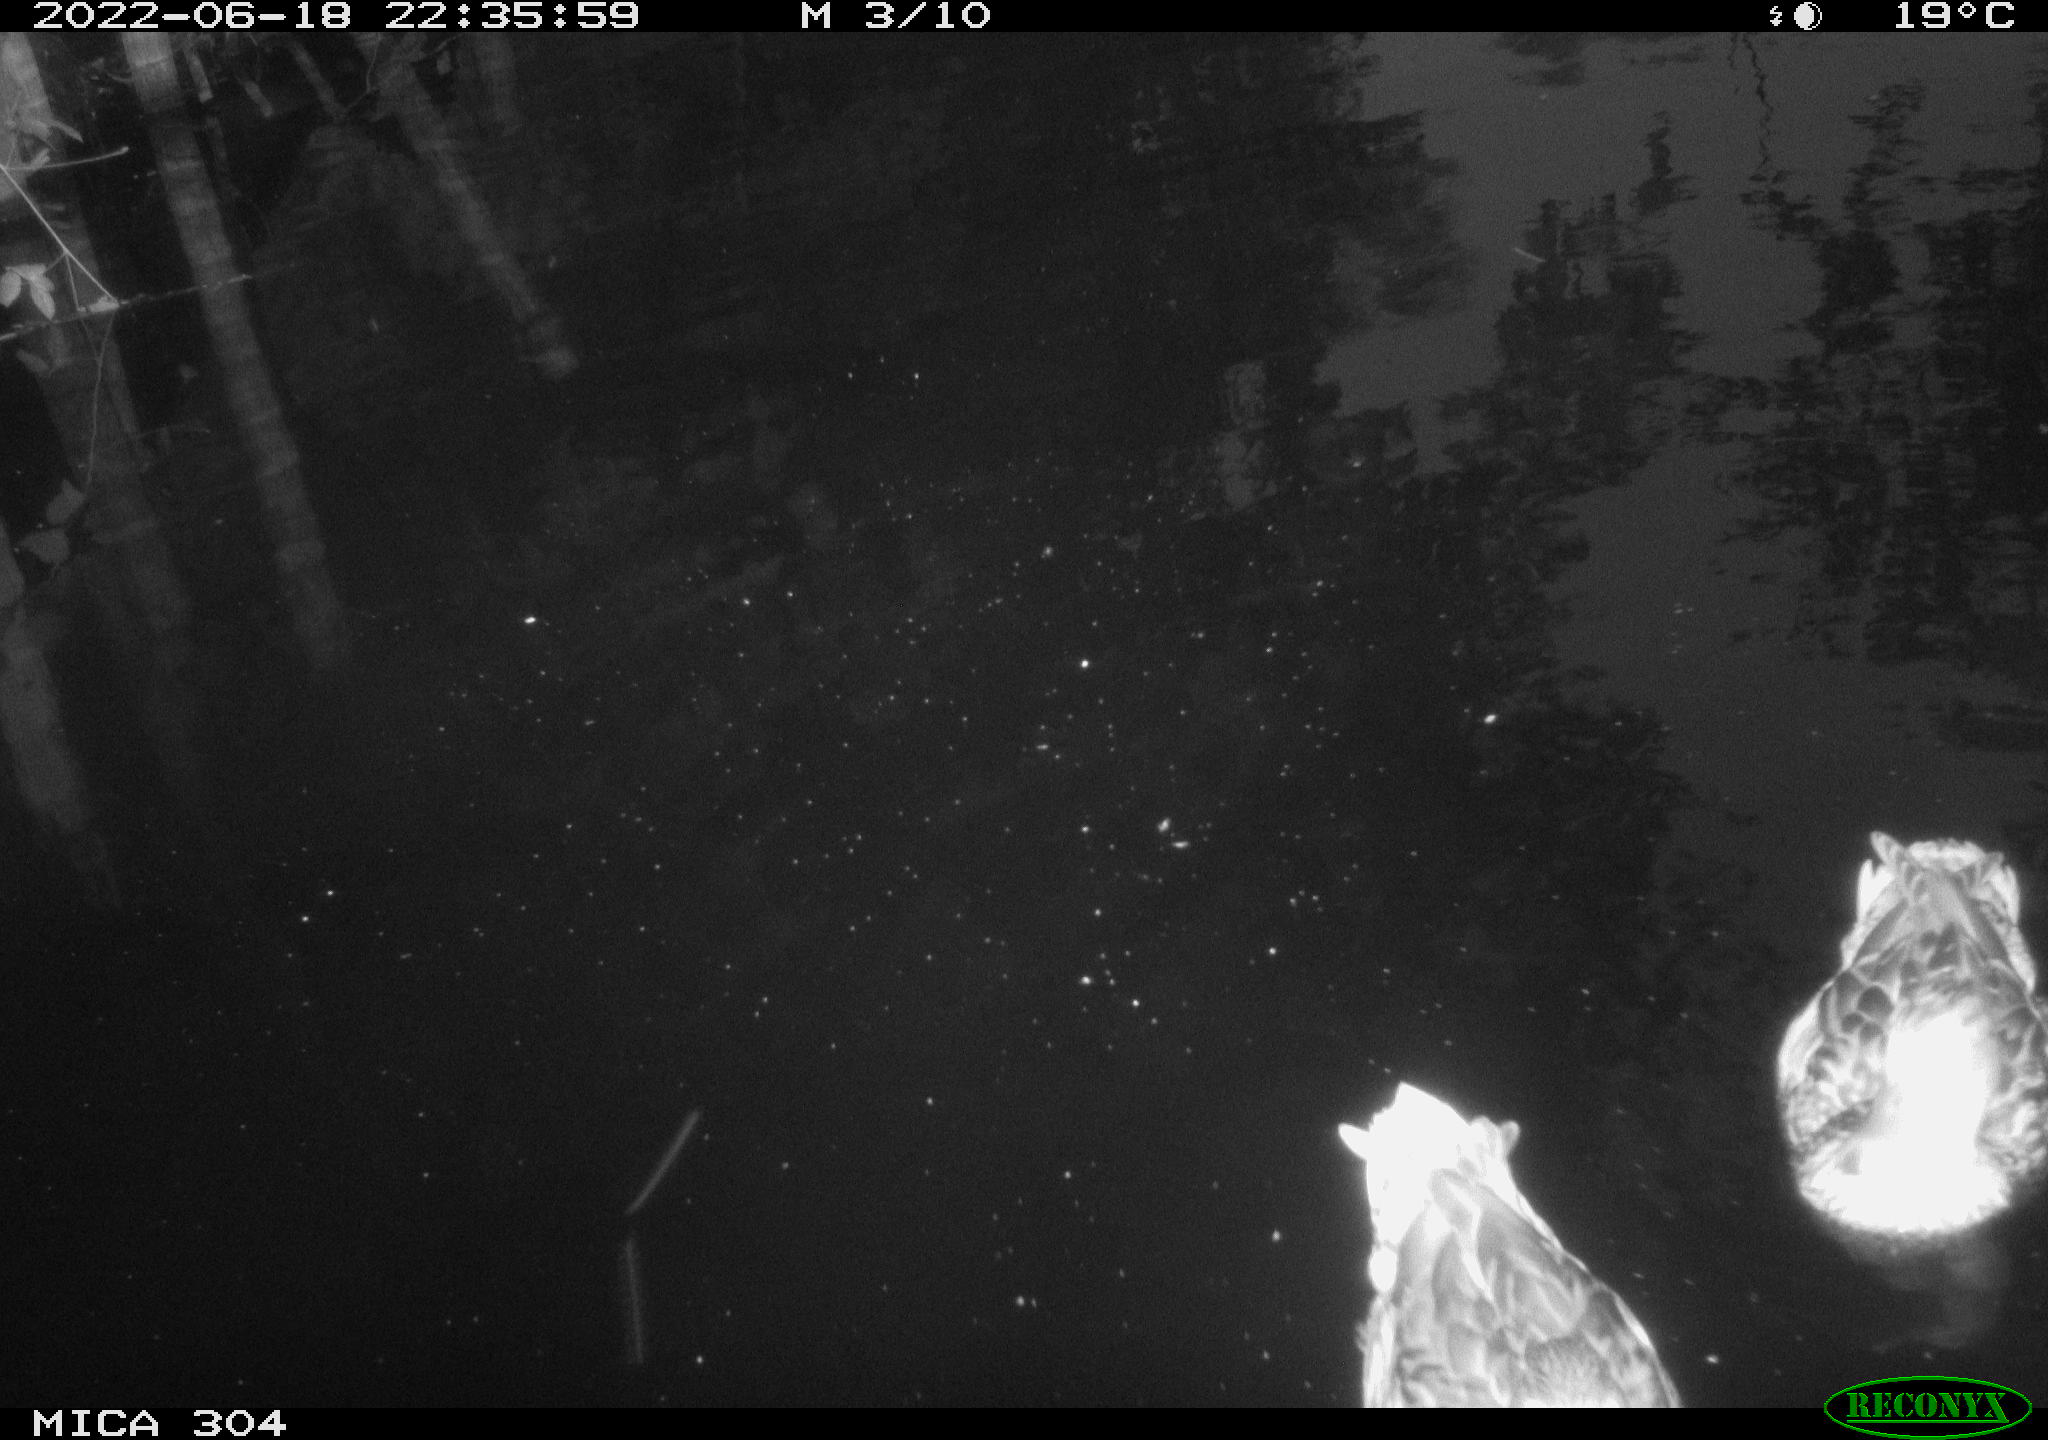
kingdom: Animalia
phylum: Chordata
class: Aves
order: Anseriformes
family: Anatidae
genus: Anas
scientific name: Anas platyrhynchos
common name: Mallard
